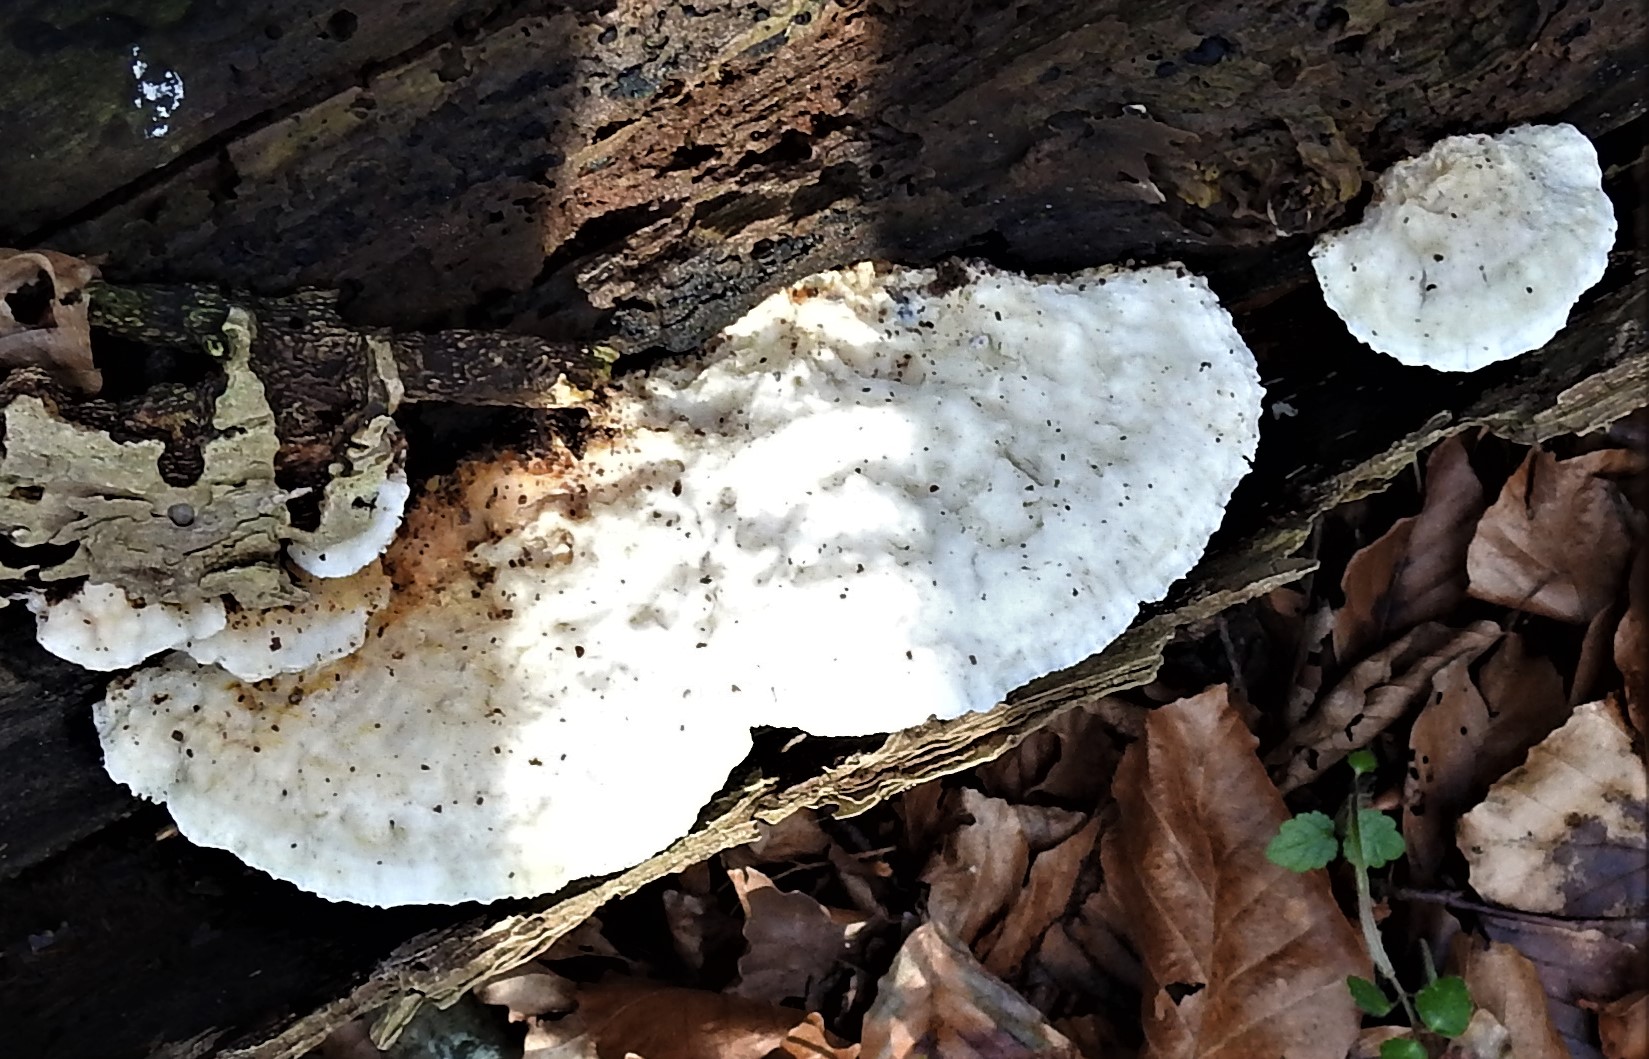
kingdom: Fungi
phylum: Basidiomycota
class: Agaricomycetes
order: Polyporales
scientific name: Polyporales
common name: poresvampordenen
